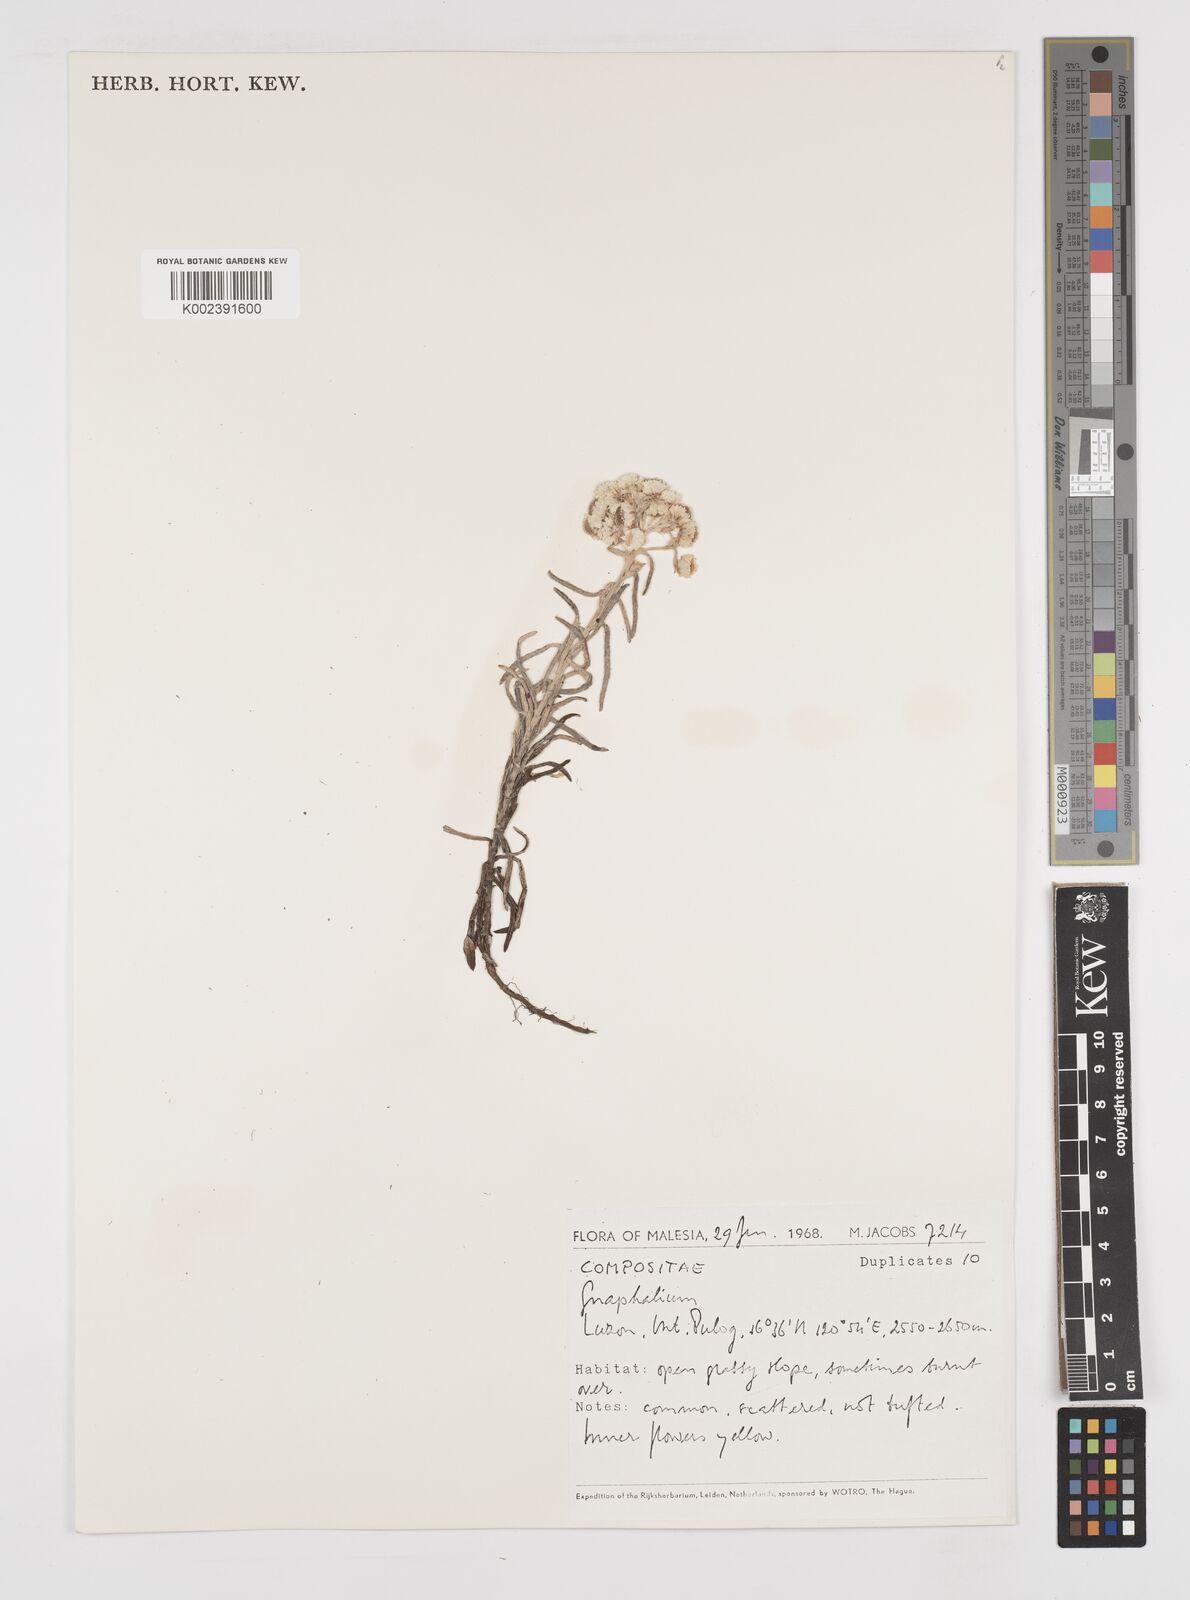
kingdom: Plantae
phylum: Tracheophyta
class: Magnoliopsida
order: Asterales
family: Asteraceae
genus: Gnaphalium
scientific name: Gnaphalium
